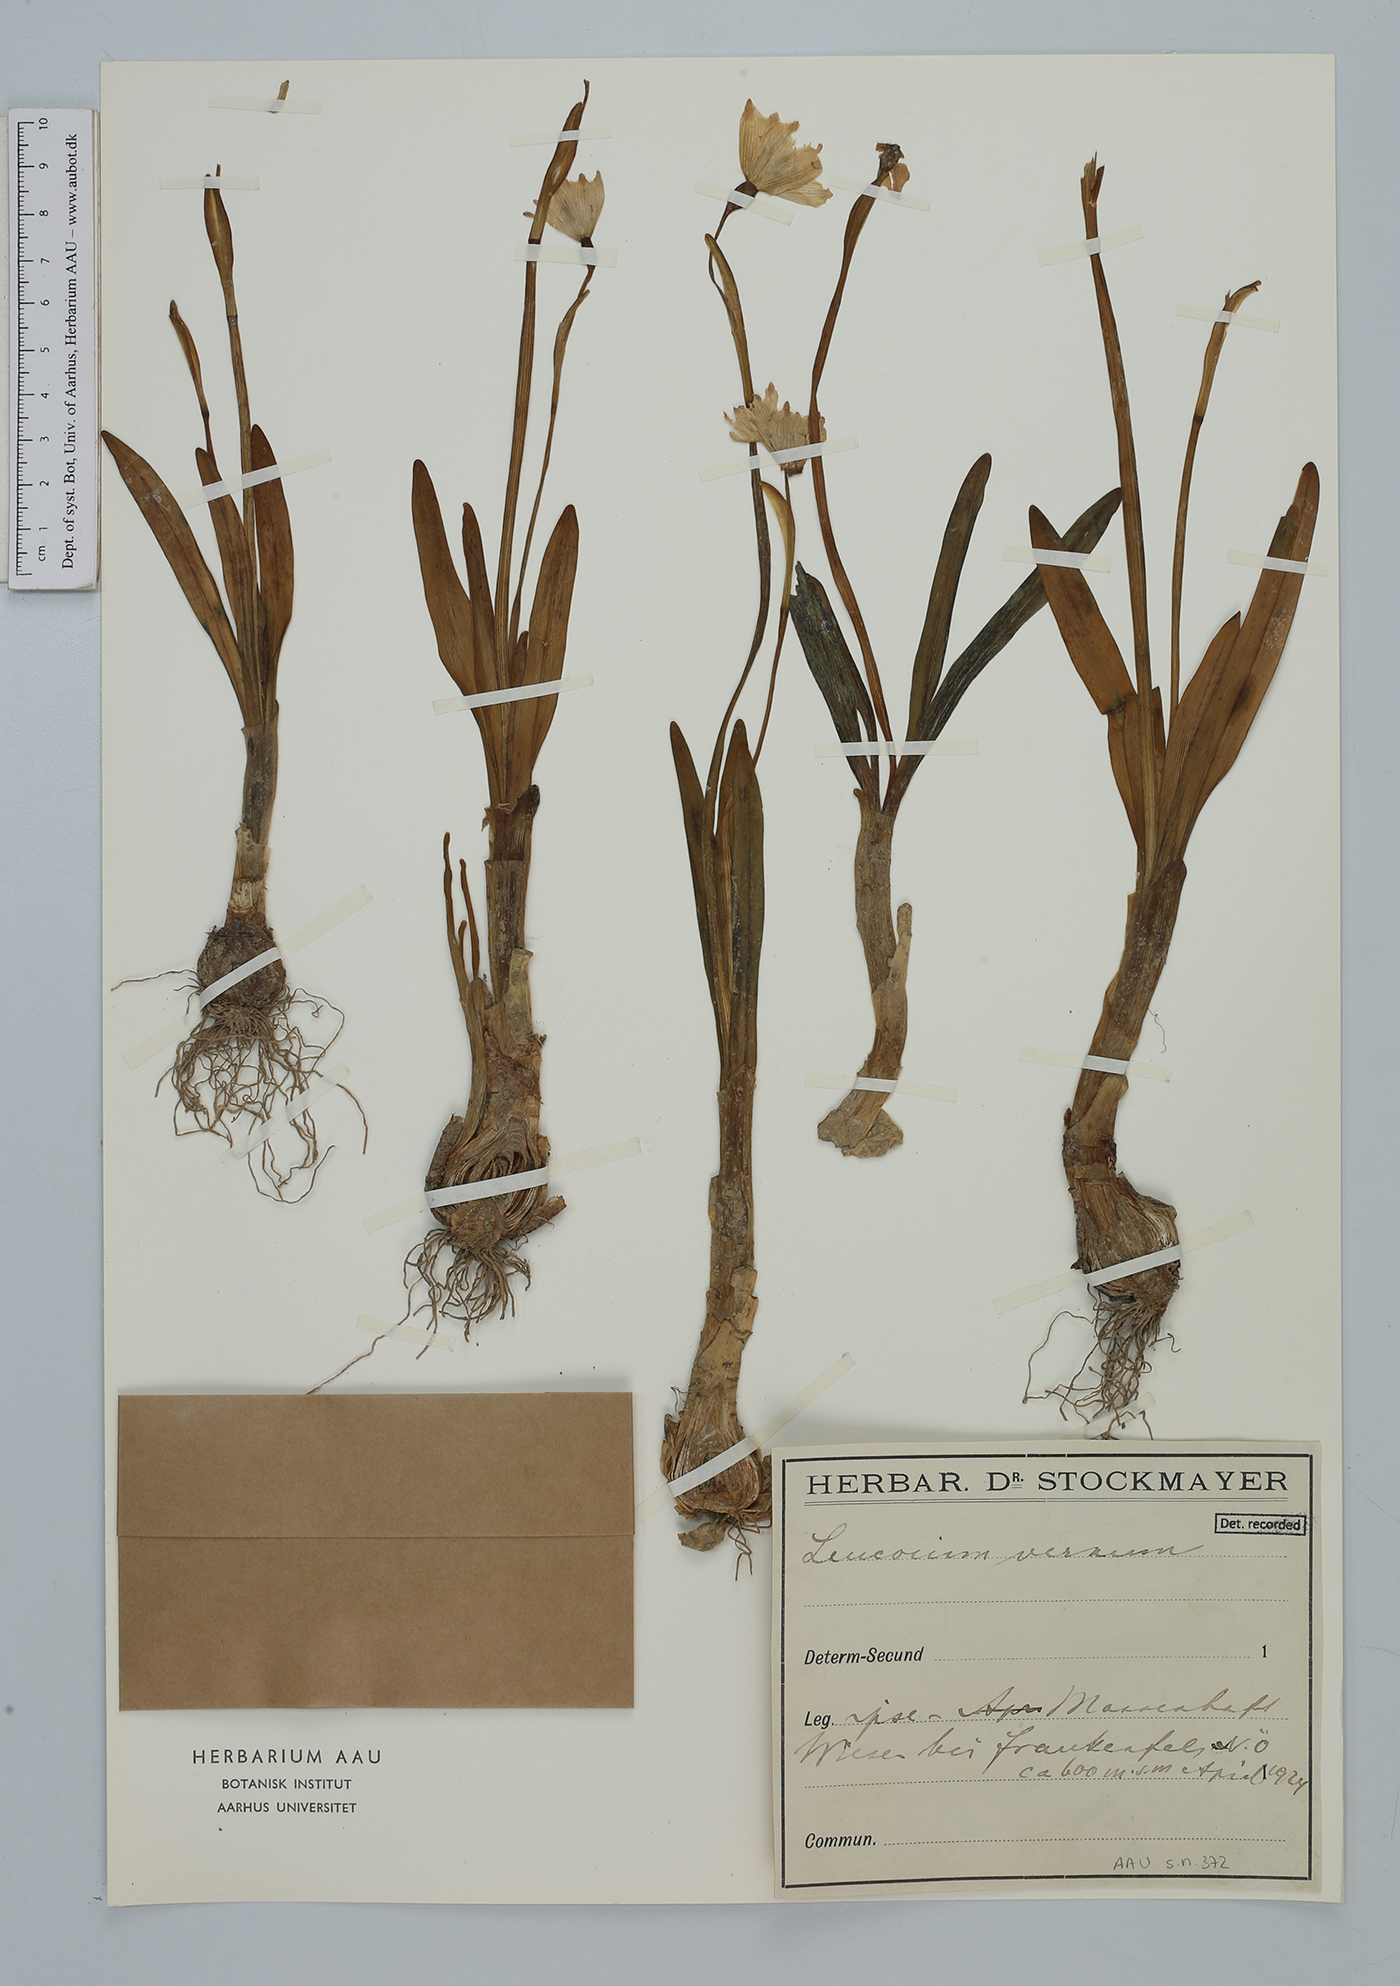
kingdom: Plantae
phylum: Tracheophyta
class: Liliopsida
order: Asparagales
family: Amaryllidaceae
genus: Leucojum
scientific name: Leucojum vernum
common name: Spring snowflake
